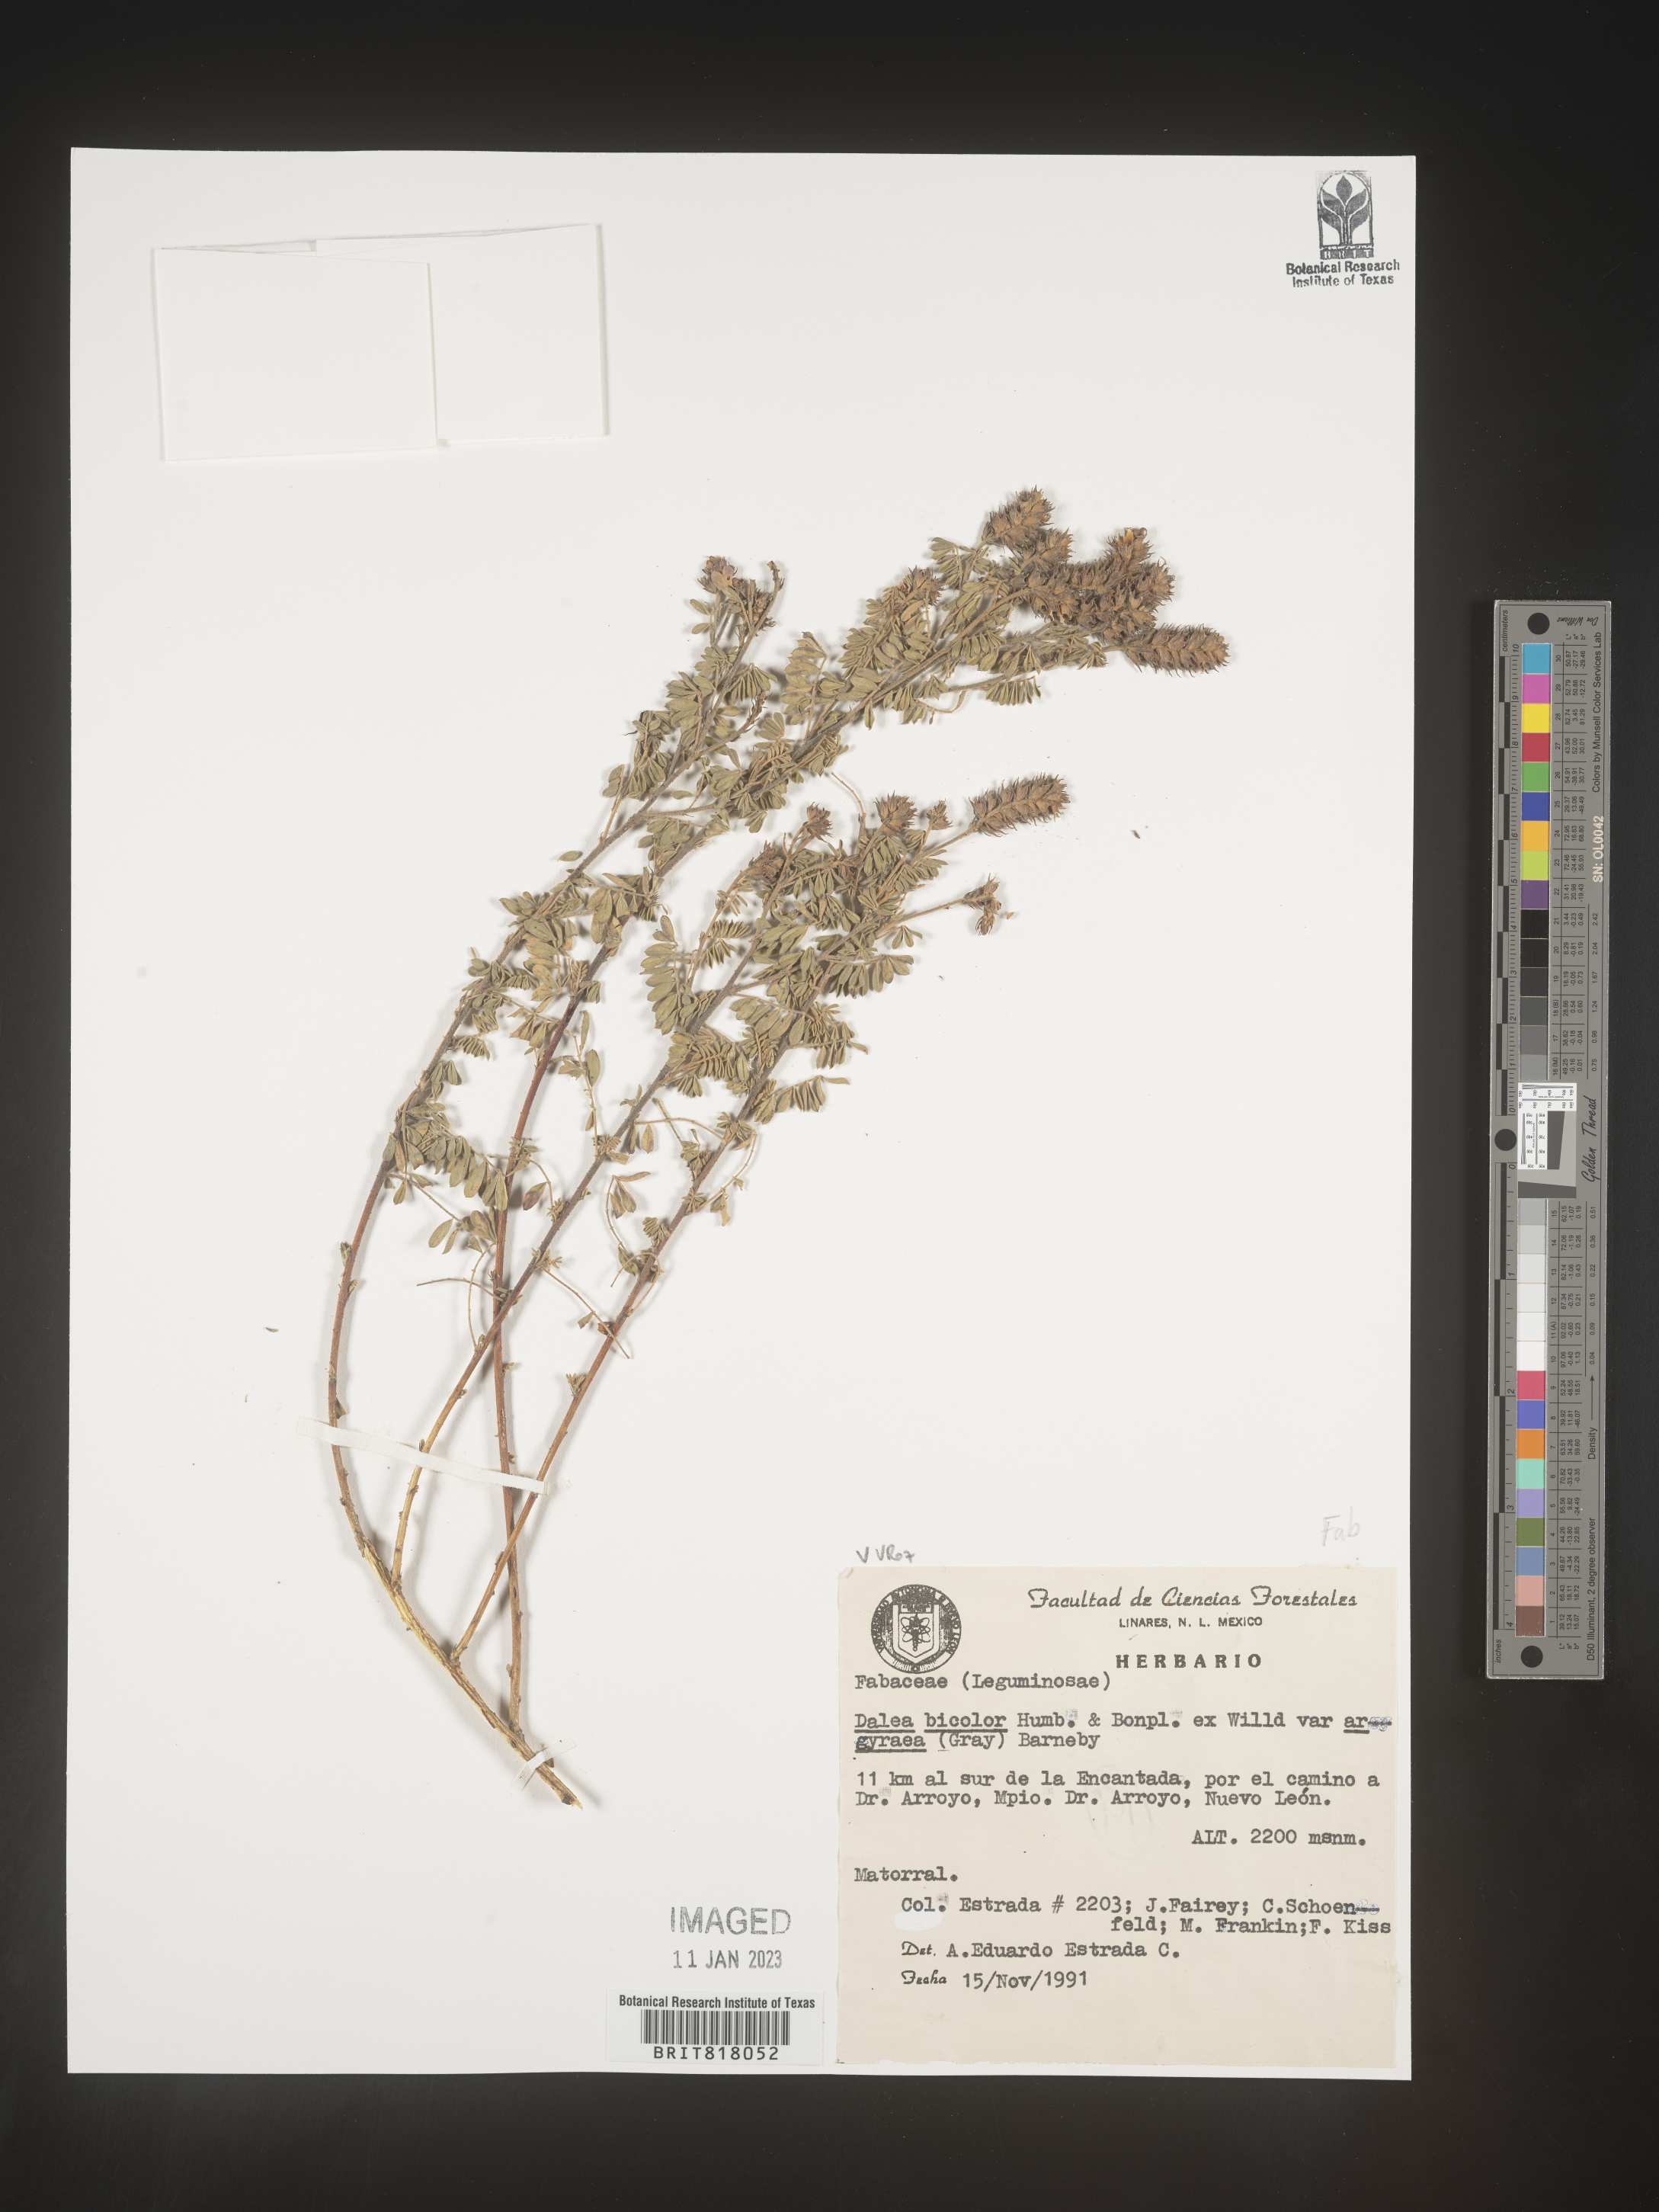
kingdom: Plantae
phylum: Tracheophyta
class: Magnoliopsida
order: Fabales
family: Fabaceae
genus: Dalea
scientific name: Dalea
